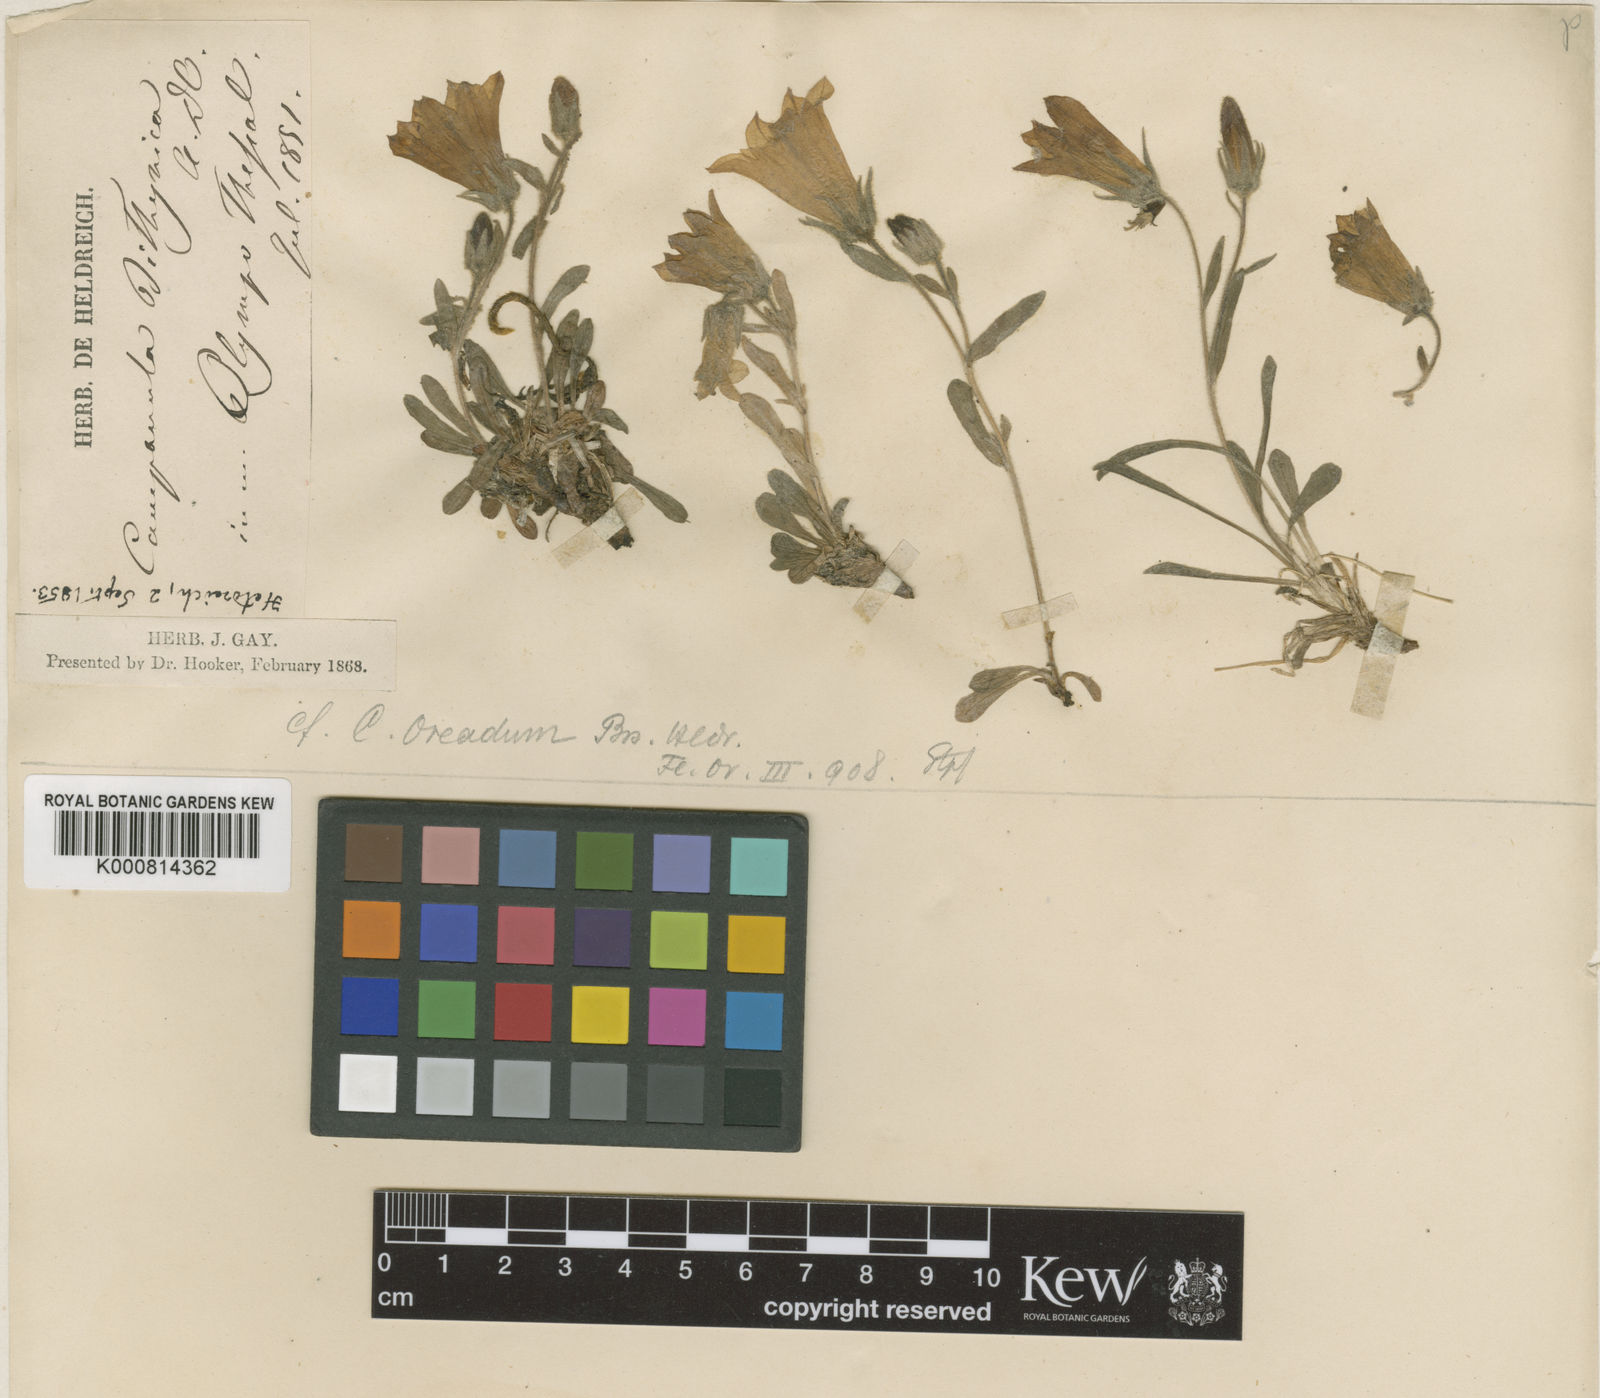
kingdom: Plantae
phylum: Tracheophyta
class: Magnoliopsida
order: Asterales
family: Campanulaceae
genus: Campanula
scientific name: Campanula oreadum
